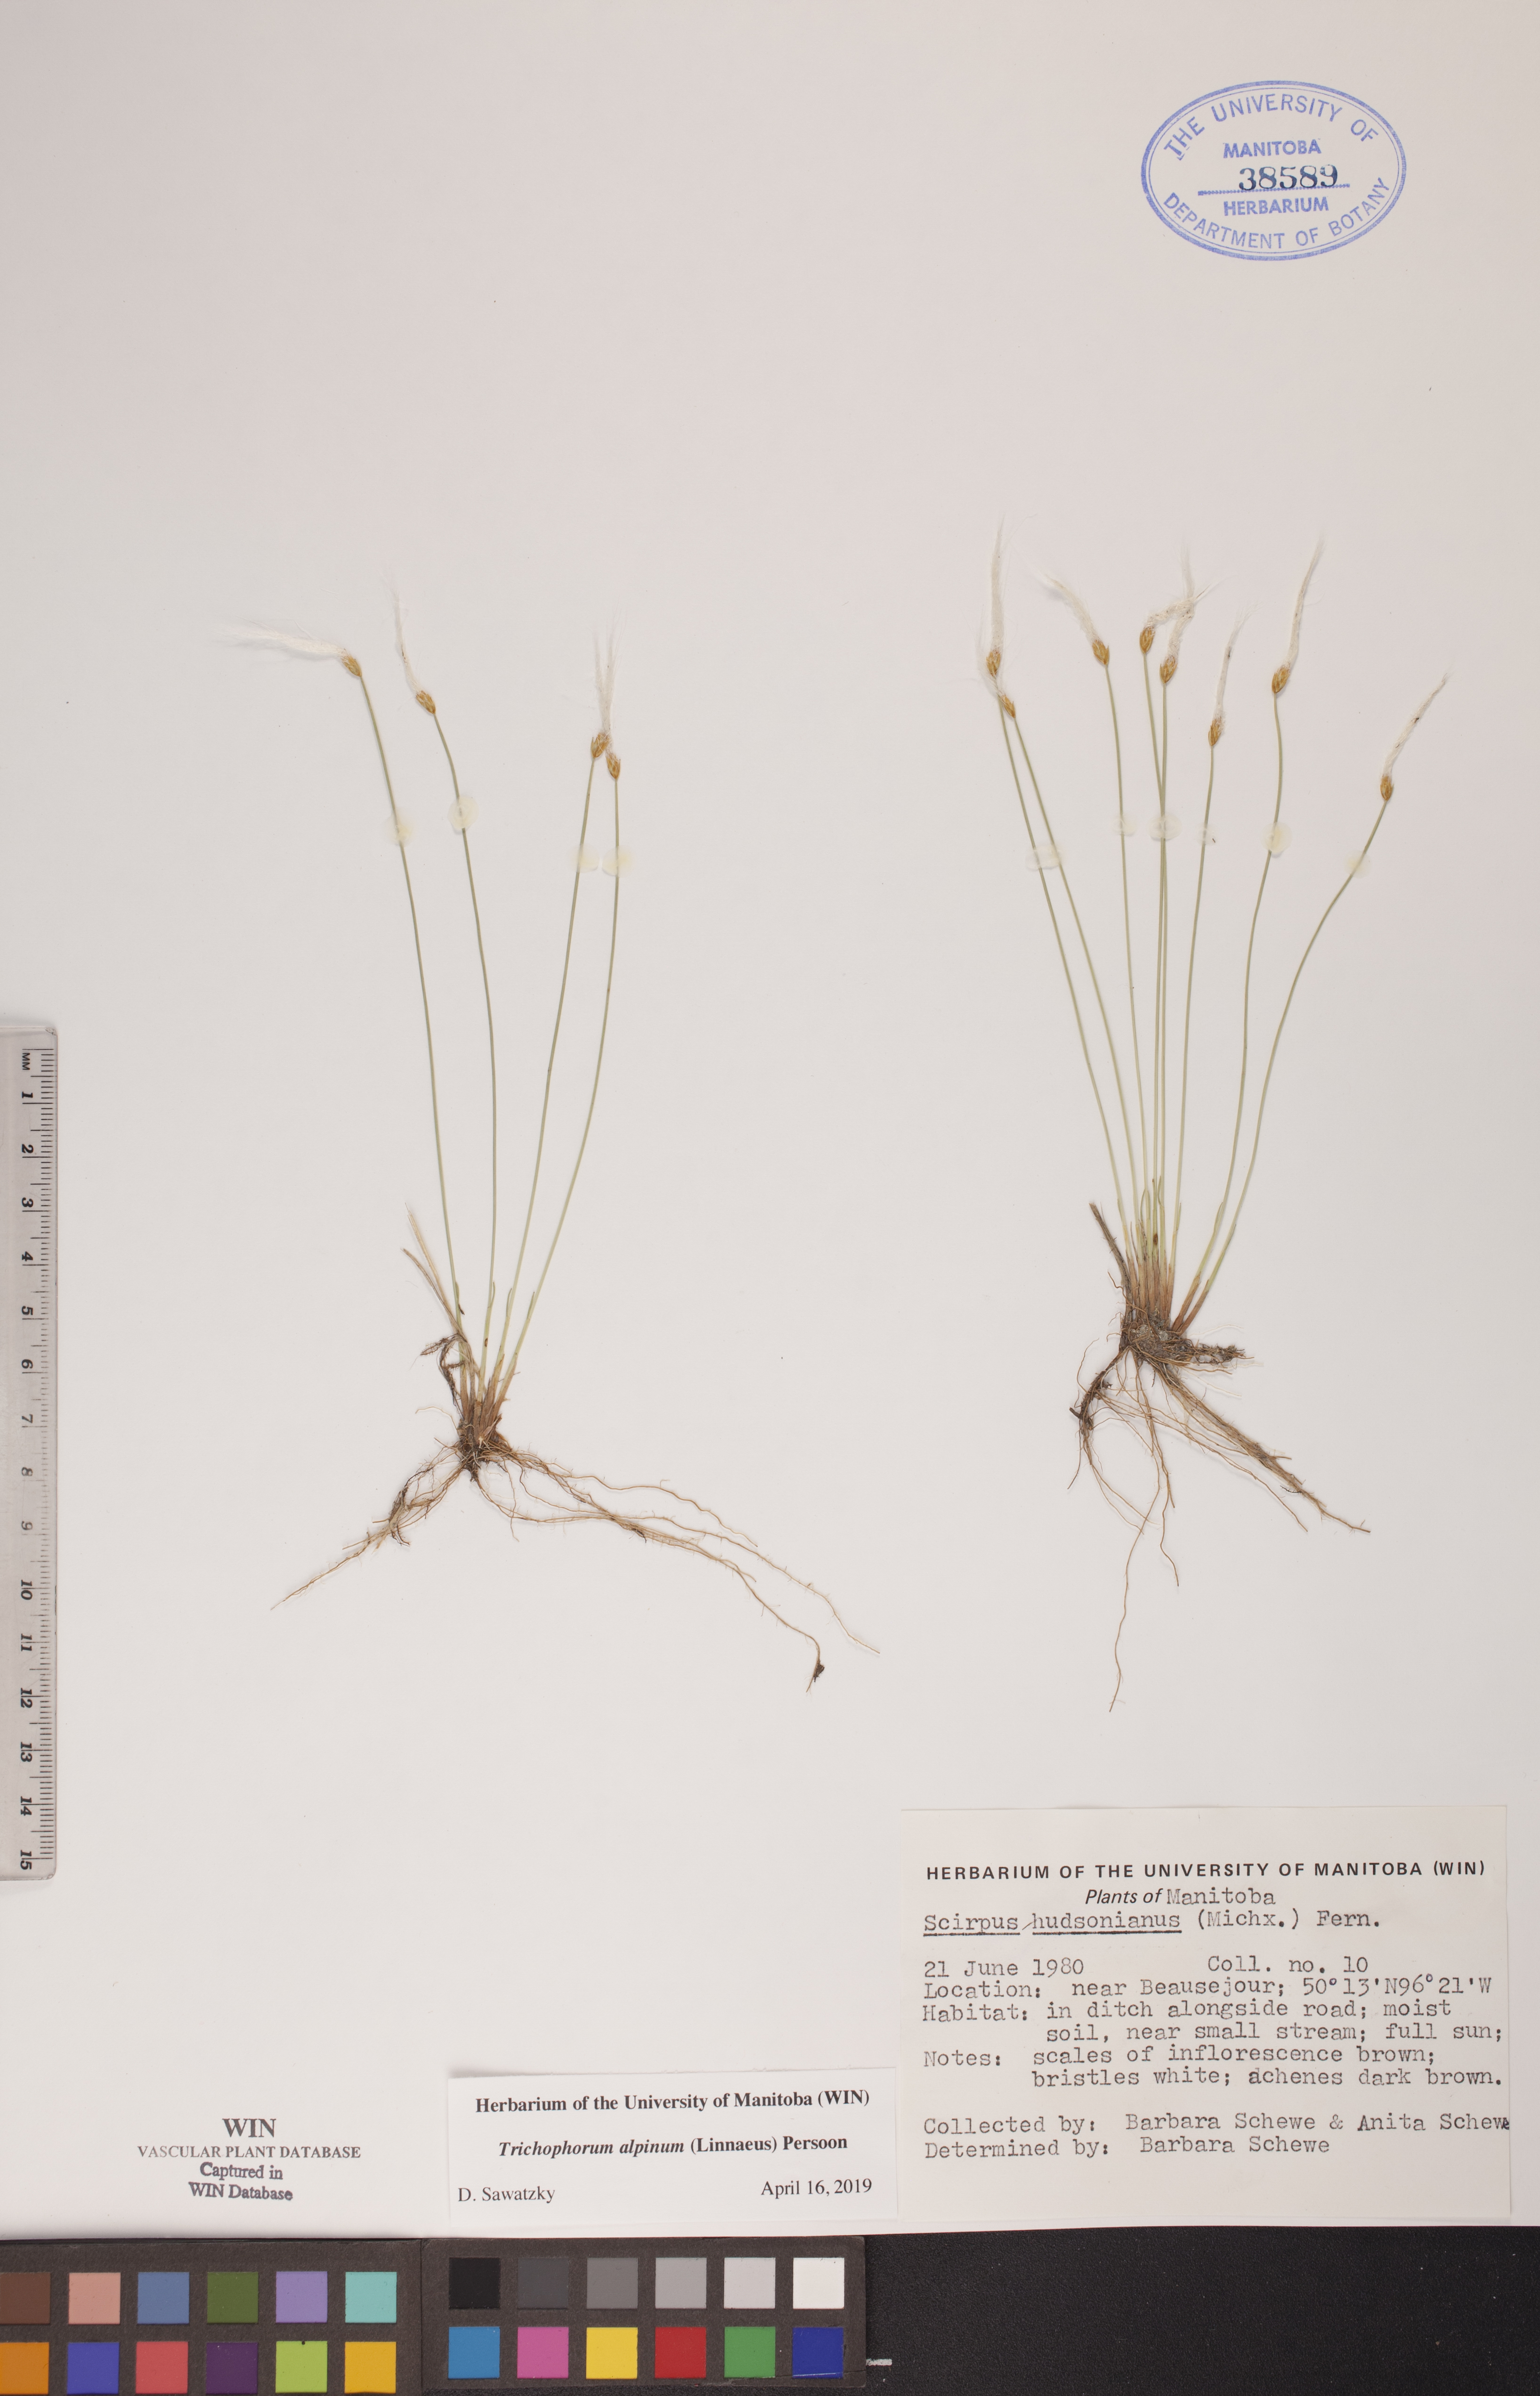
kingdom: Plantae
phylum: Tracheophyta
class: Liliopsida
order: Poales
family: Cyperaceae
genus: Trichophorum
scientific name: Trichophorum alpinum
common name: Alpine bulrush
